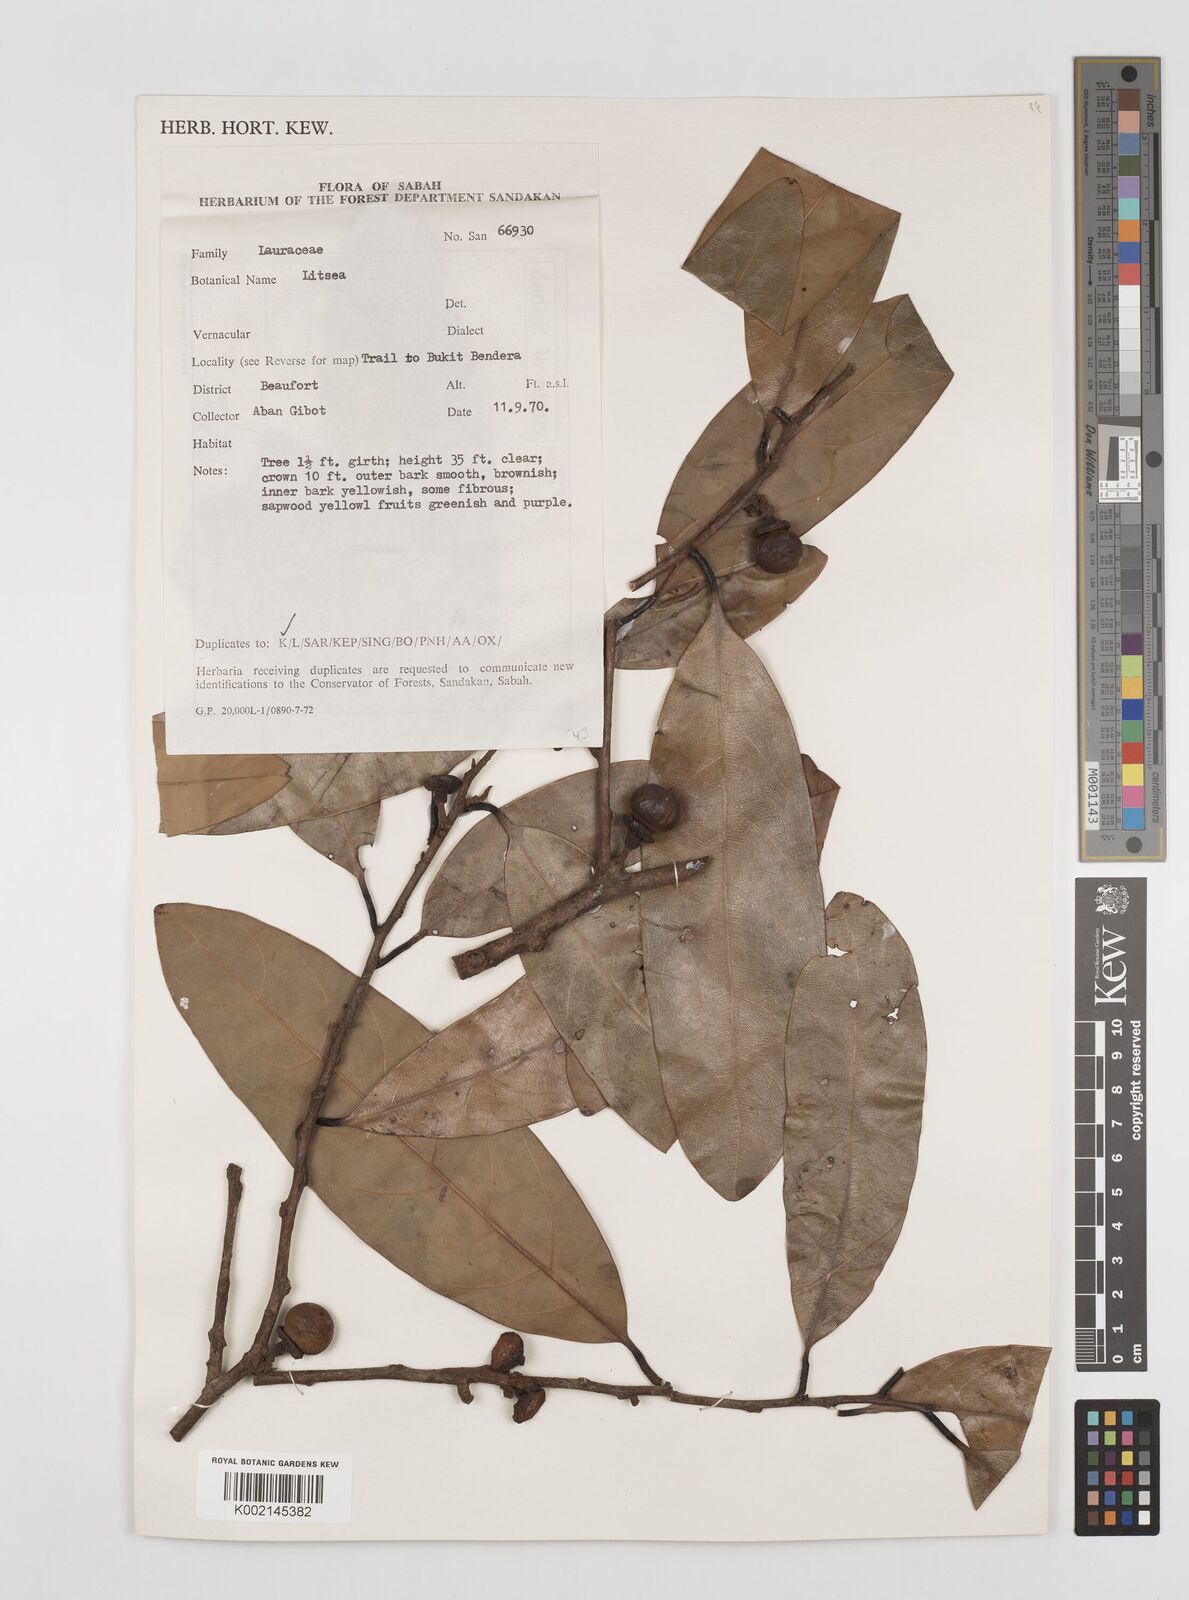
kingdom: Plantae
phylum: Tracheophyta
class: Magnoliopsida
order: Laurales
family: Lauraceae
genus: Litsea
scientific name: Litsea
